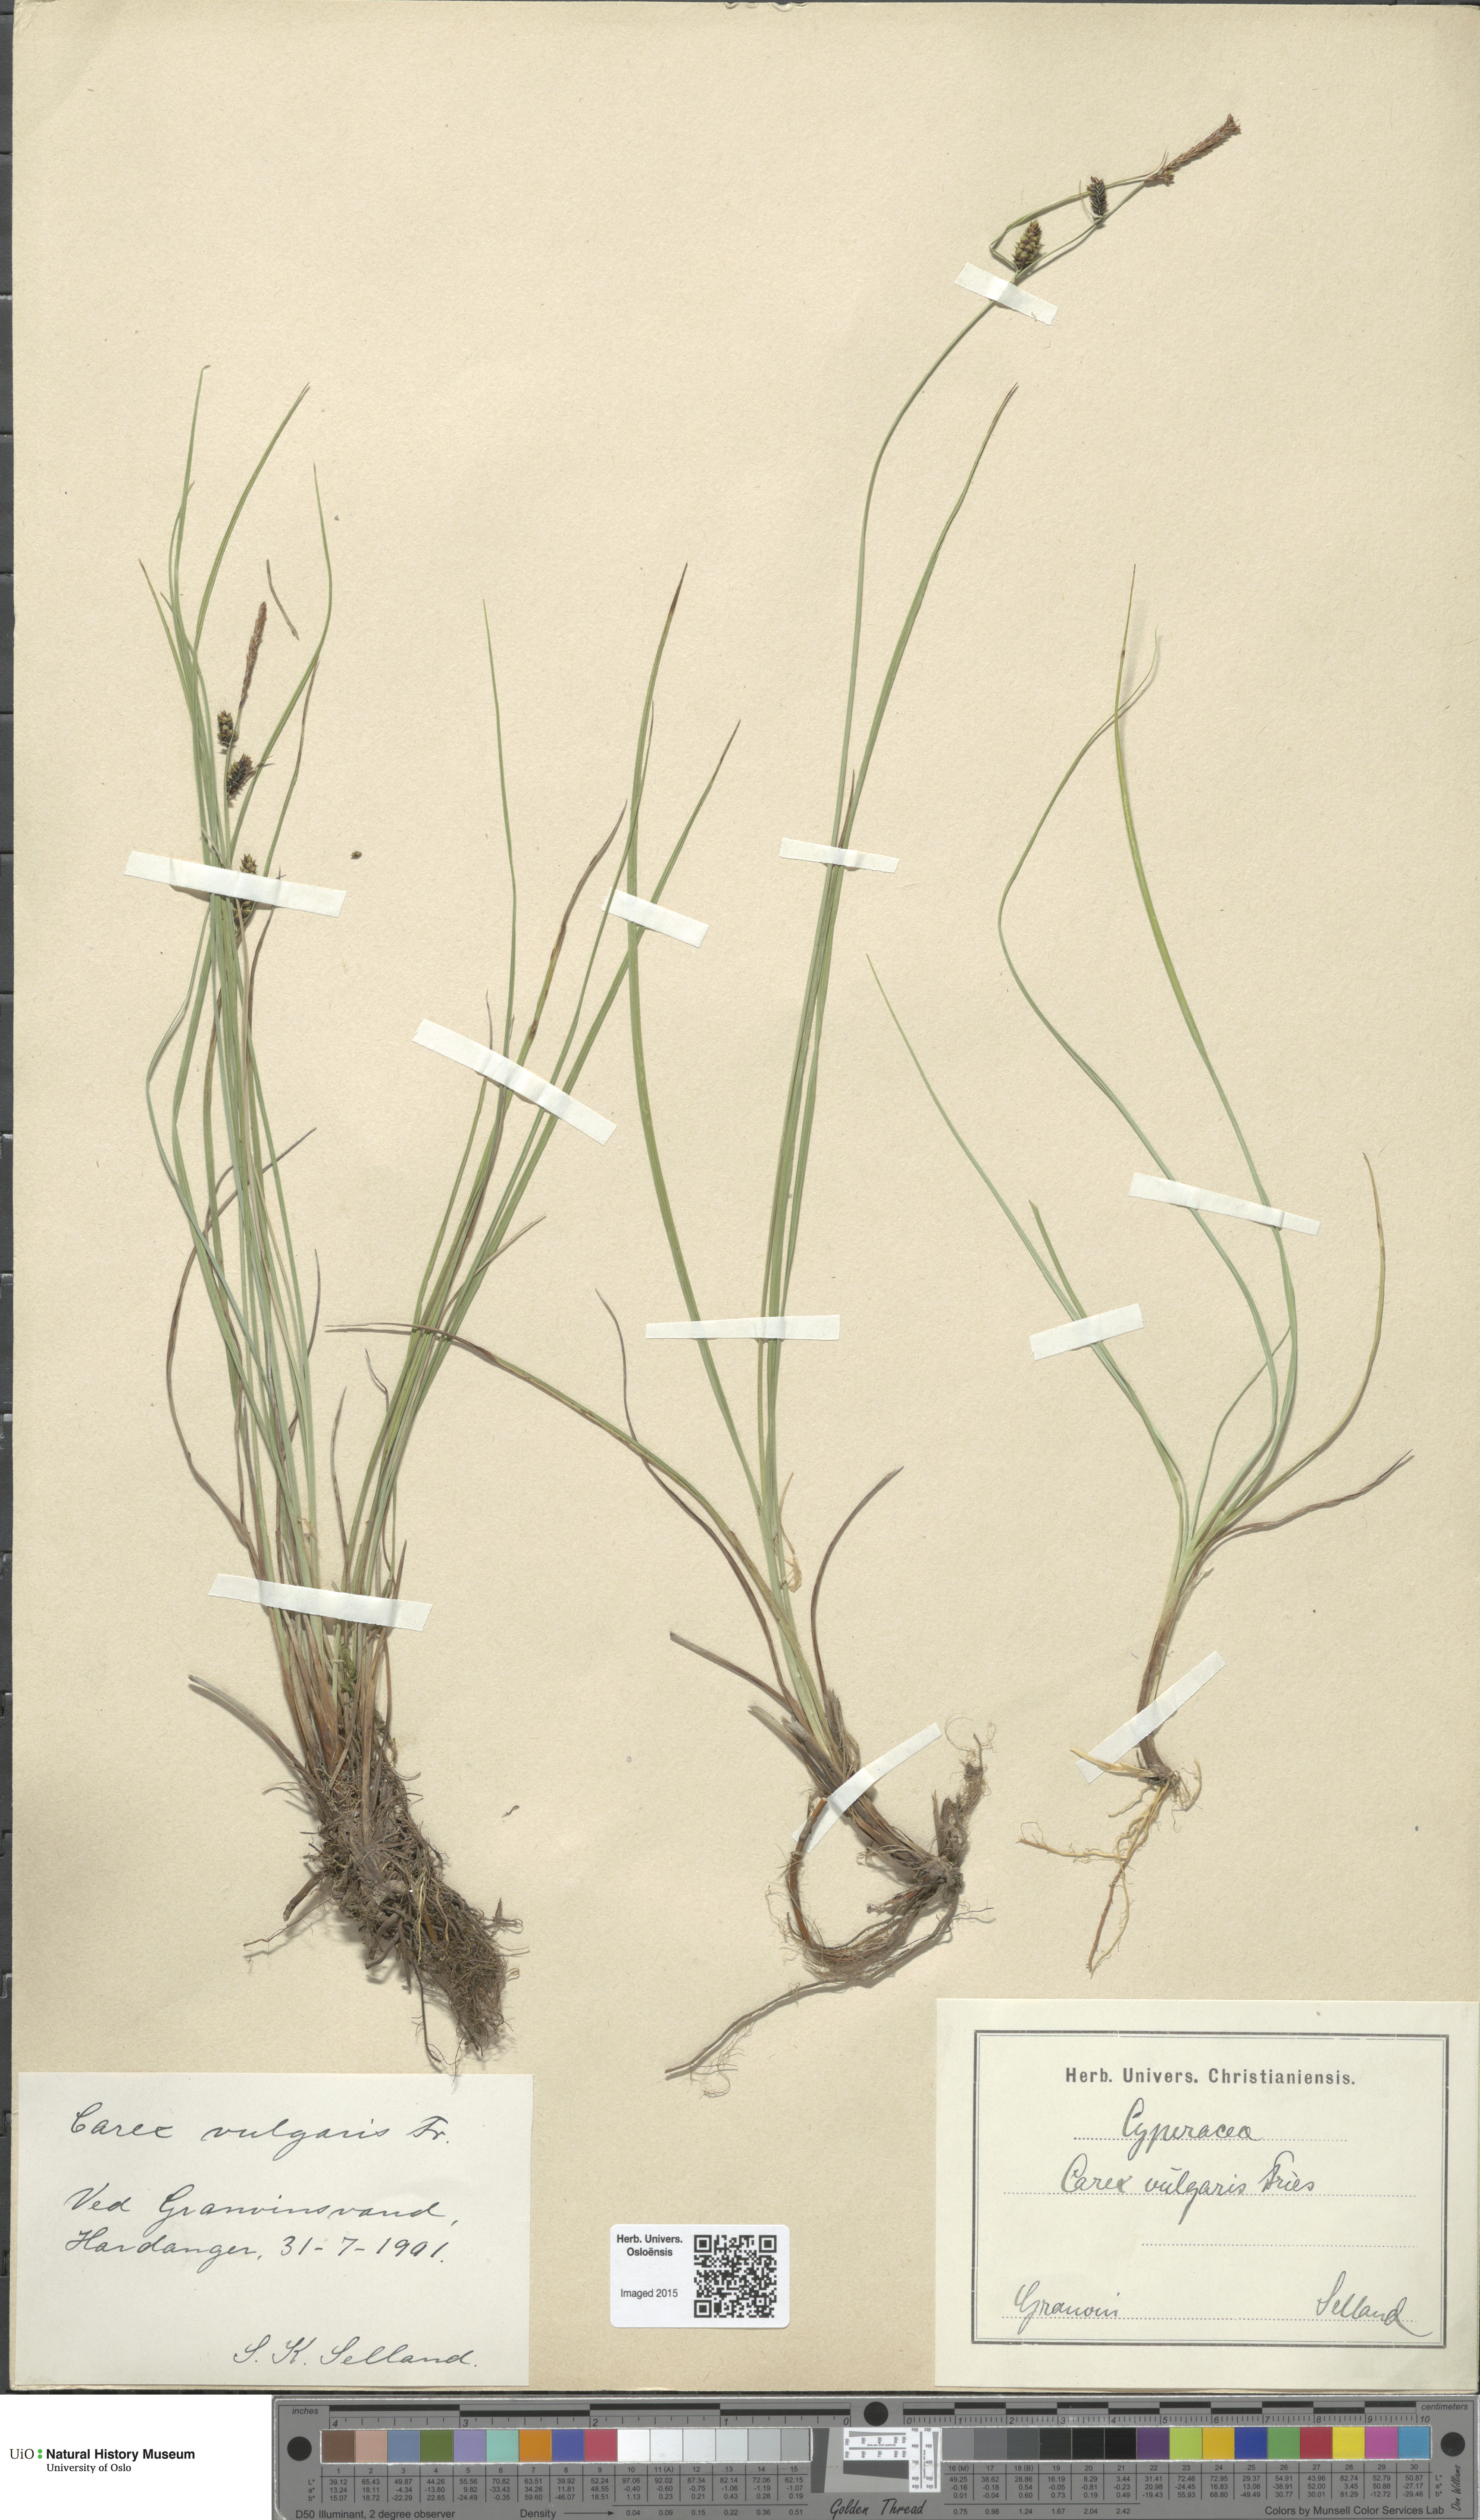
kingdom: Plantae
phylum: Tracheophyta
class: Liliopsida
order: Poales
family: Cyperaceae
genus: Carex
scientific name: Carex nigra
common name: Common sedge
